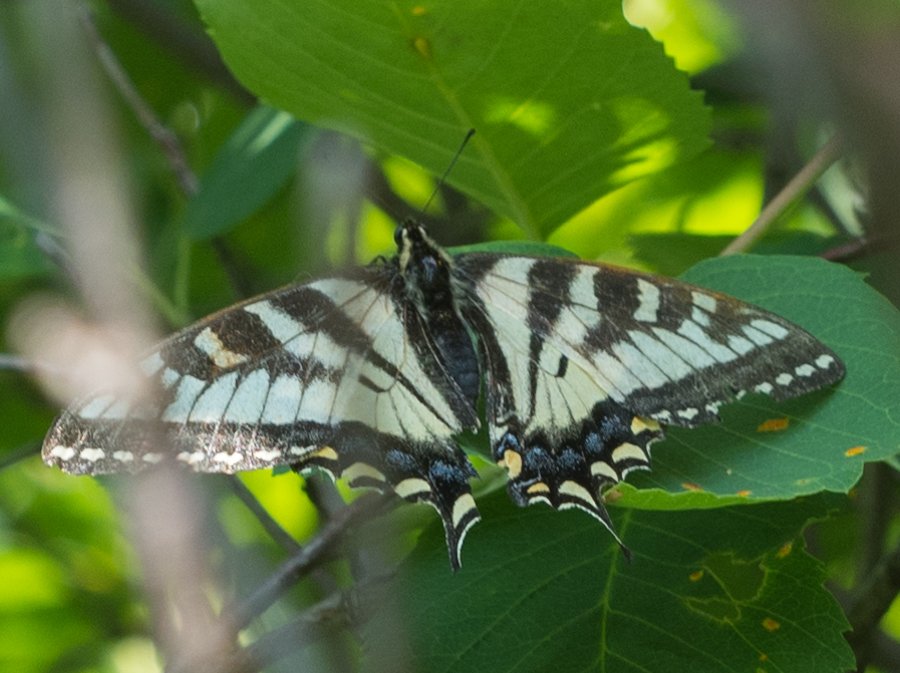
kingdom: Animalia
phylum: Arthropoda
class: Insecta
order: Lepidoptera
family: Papilionidae
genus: Pterourus
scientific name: Pterourus canadensis
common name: Canadian Tiger Swallowtail
